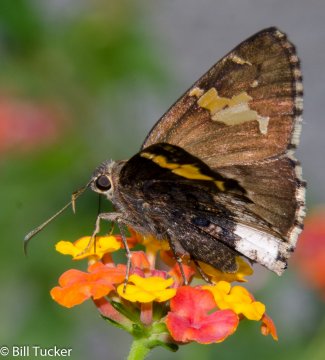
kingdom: Animalia
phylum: Arthropoda
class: Insecta
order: Lepidoptera
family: Hesperiidae
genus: Achalarus
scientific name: Achalarus lyciades
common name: Hoary Edge
